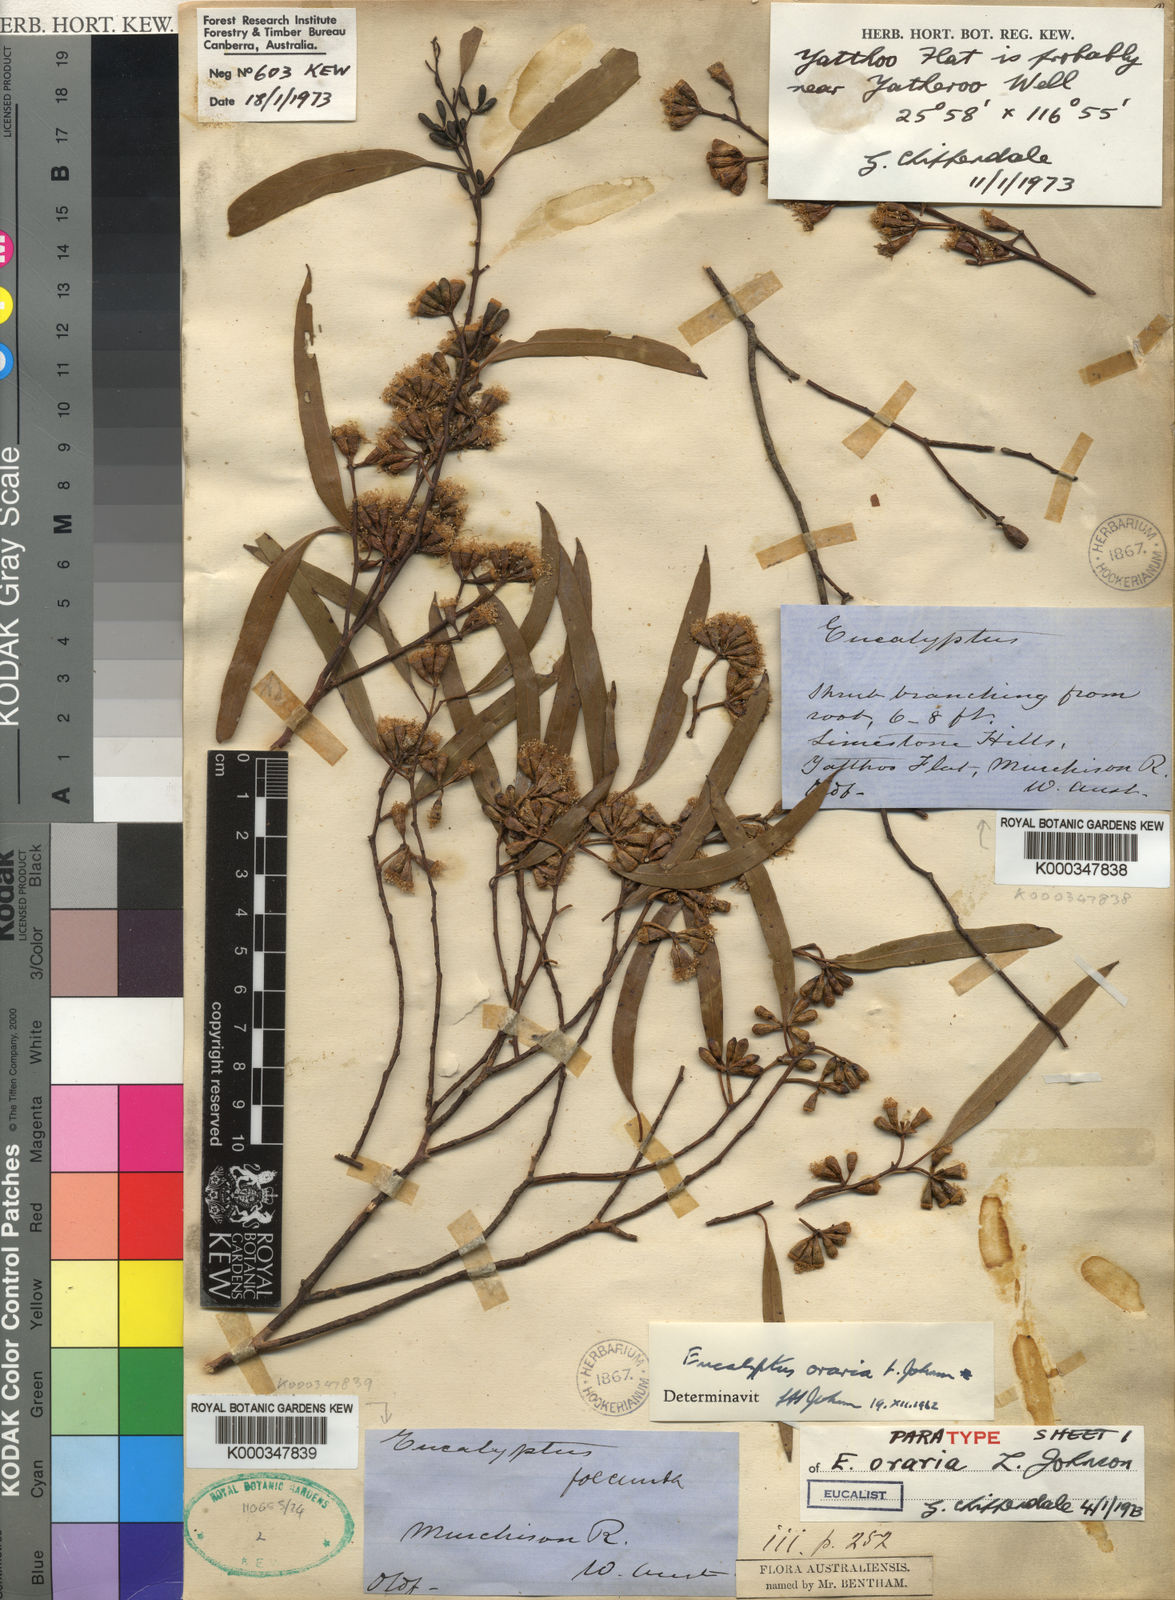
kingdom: Plantae
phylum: Tracheophyta
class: Magnoliopsida
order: Myrtales
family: Myrtaceae
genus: Eucalyptus
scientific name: Eucalyptus oraria
